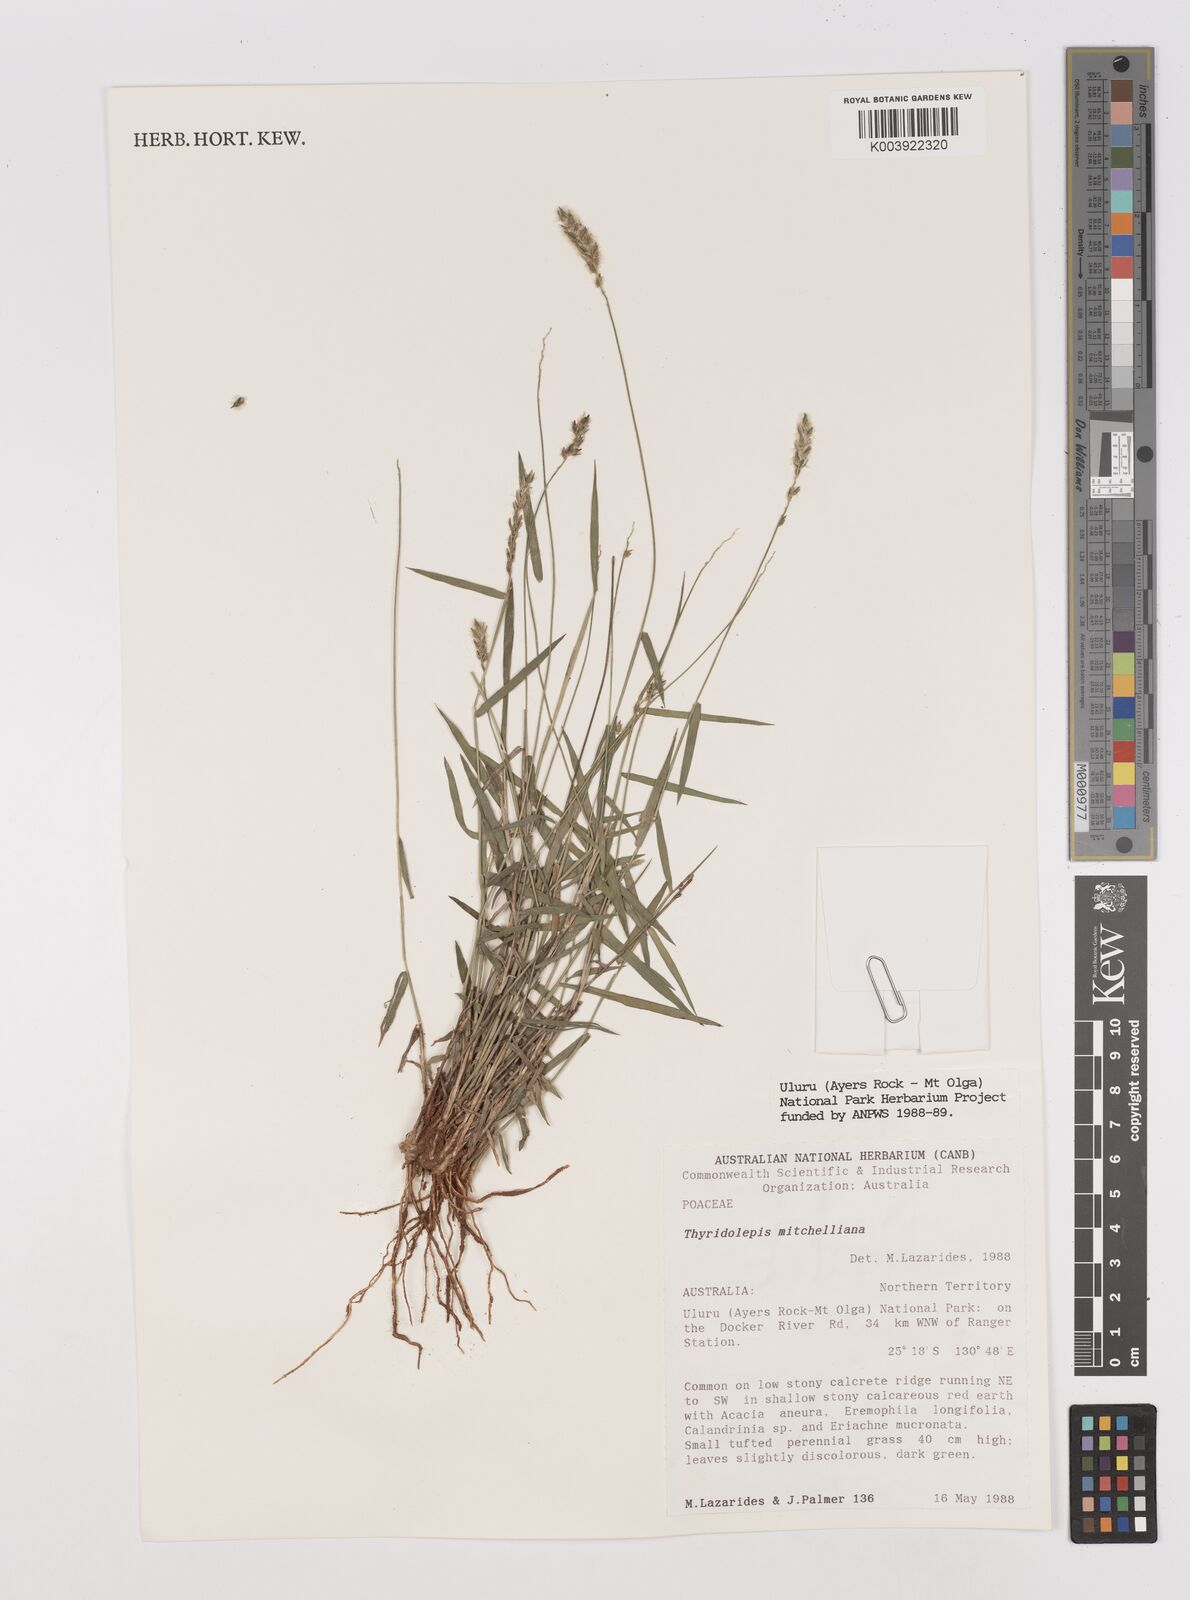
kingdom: Plantae
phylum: Tracheophyta
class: Liliopsida
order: Poales
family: Poaceae
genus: Thyridolepis
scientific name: Thyridolepis mitchelliana
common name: Rock tassel grass
